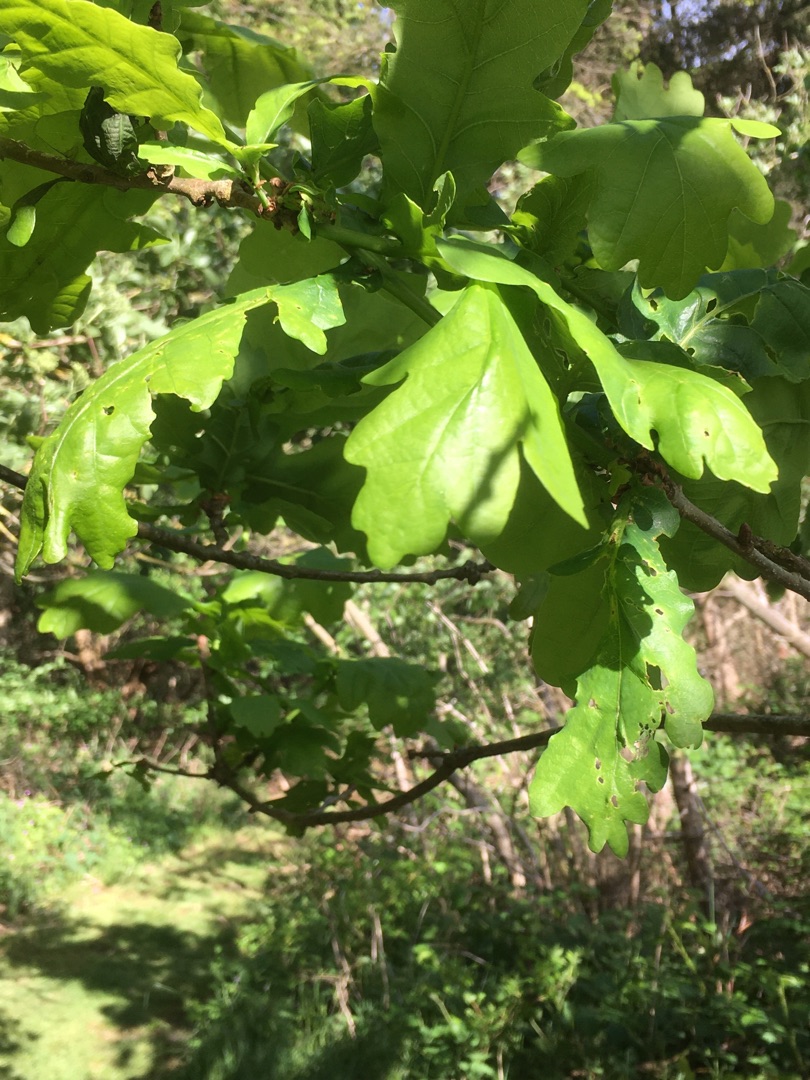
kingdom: Plantae
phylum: Tracheophyta
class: Magnoliopsida
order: Fagales
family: Fagaceae
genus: Quercus
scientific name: Quercus robur
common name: Stilk-eg/almindelig eg
